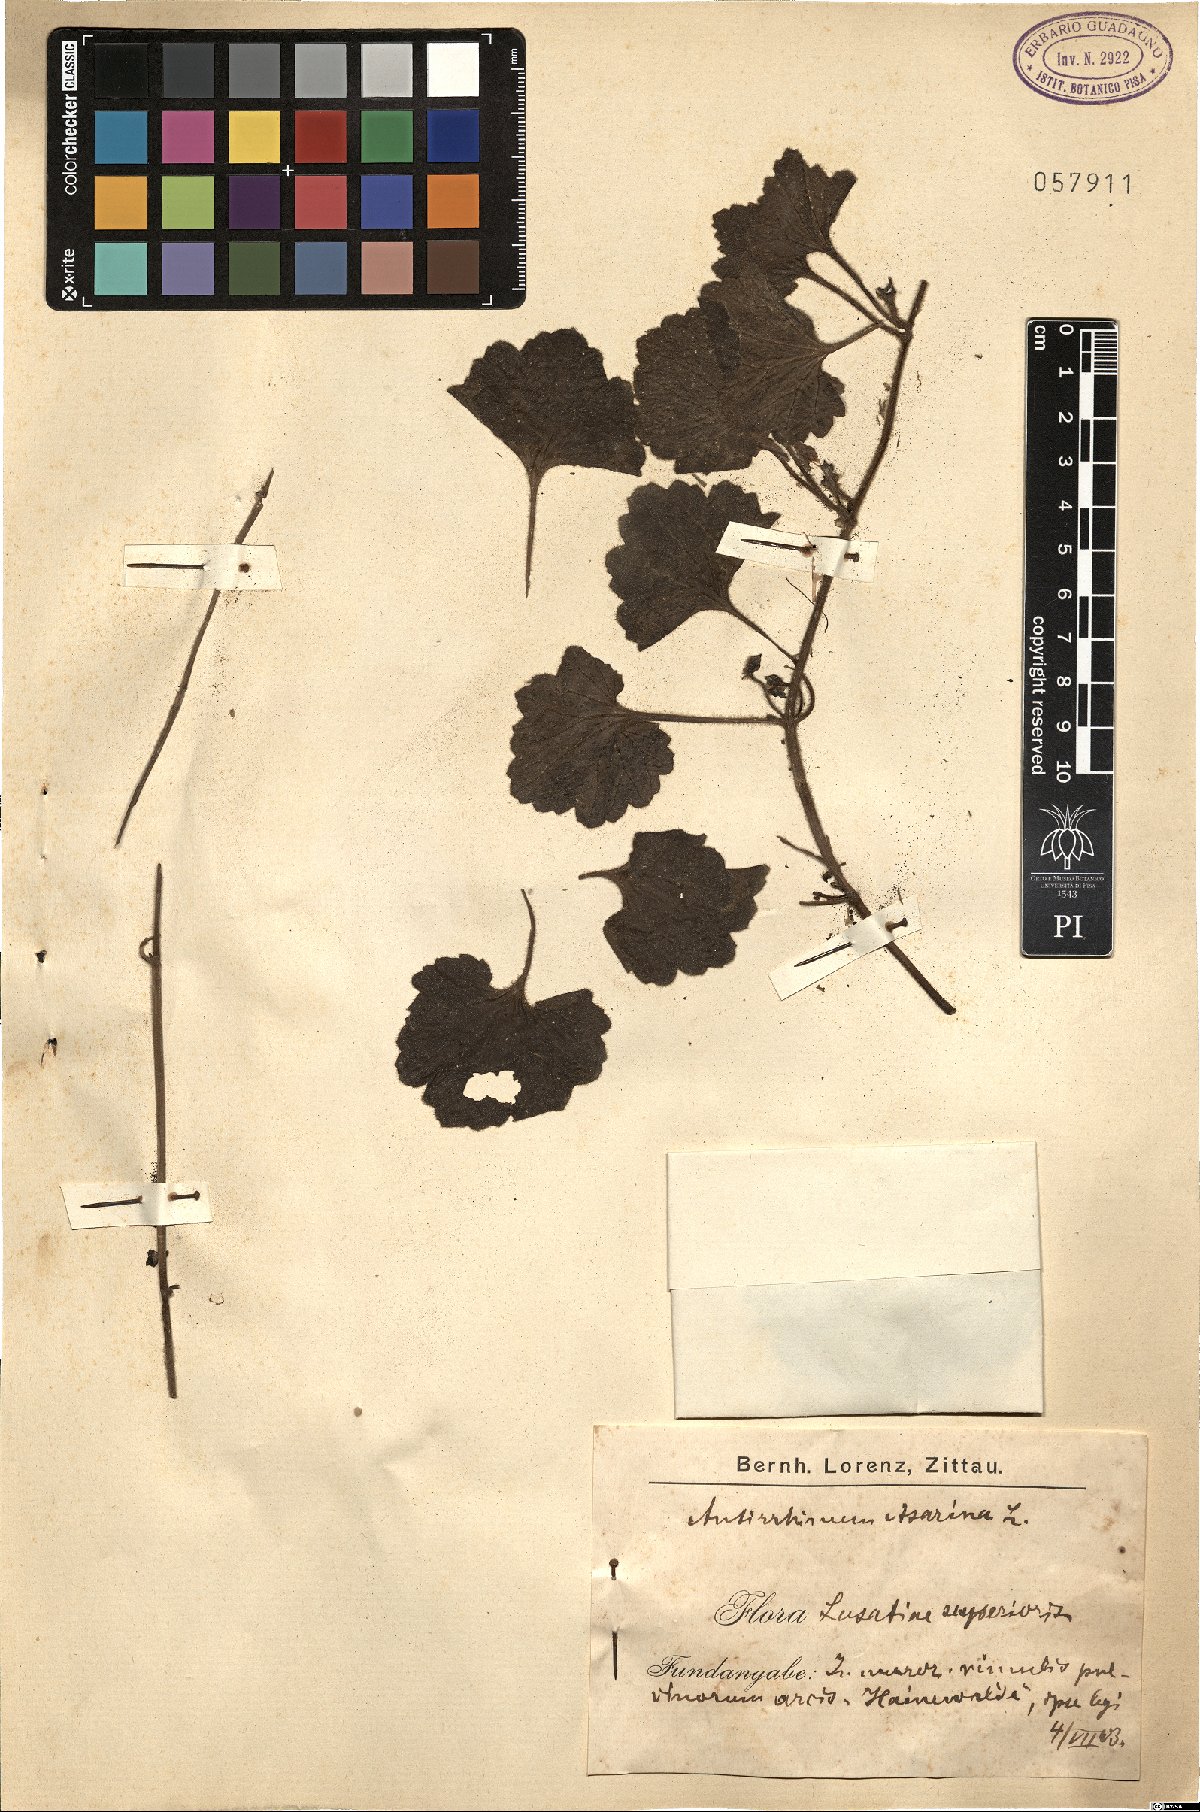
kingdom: Plantae
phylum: Tracheophyta
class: Magnoliopsida
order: Lamiales
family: Plantaginaceae
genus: Asarina
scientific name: Asarina procumbens
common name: Trailing snapdragon
